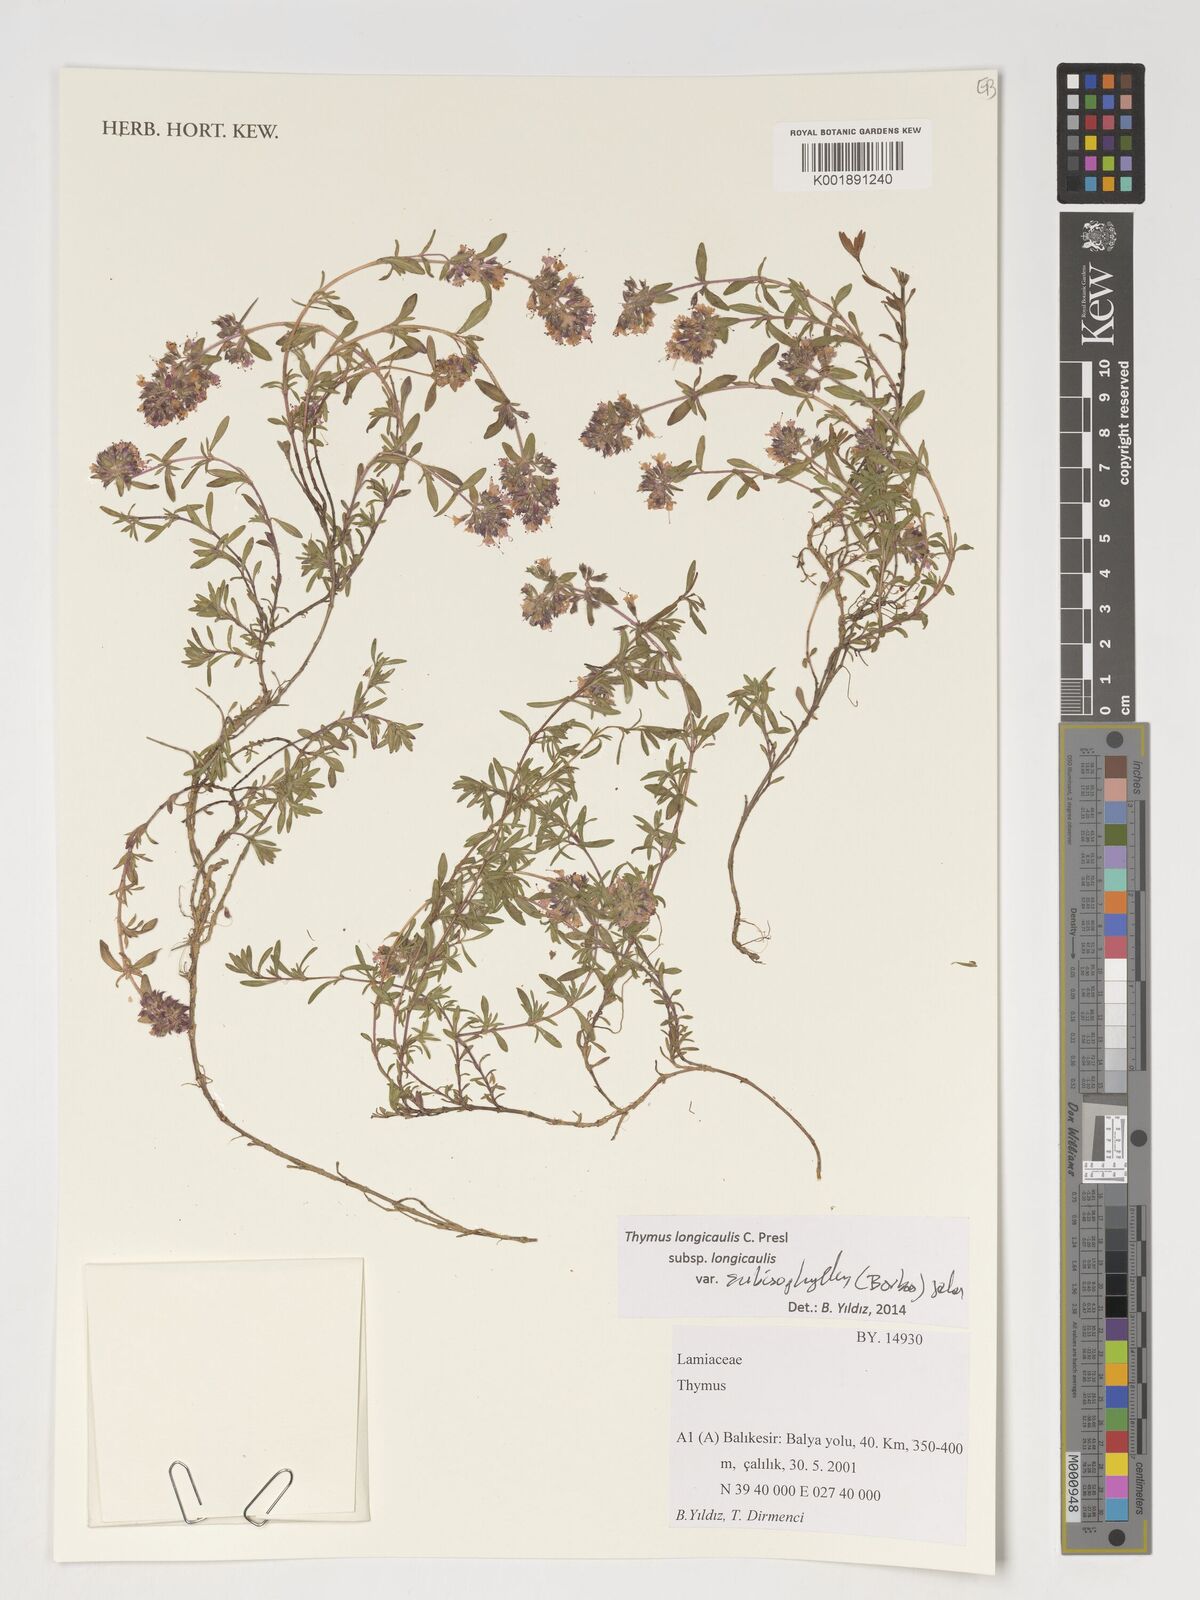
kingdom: Plantae
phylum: Tracheophyta
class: Magnoliopsida
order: Lamiales
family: Lamiaceae
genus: Thymus
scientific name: Thymus
